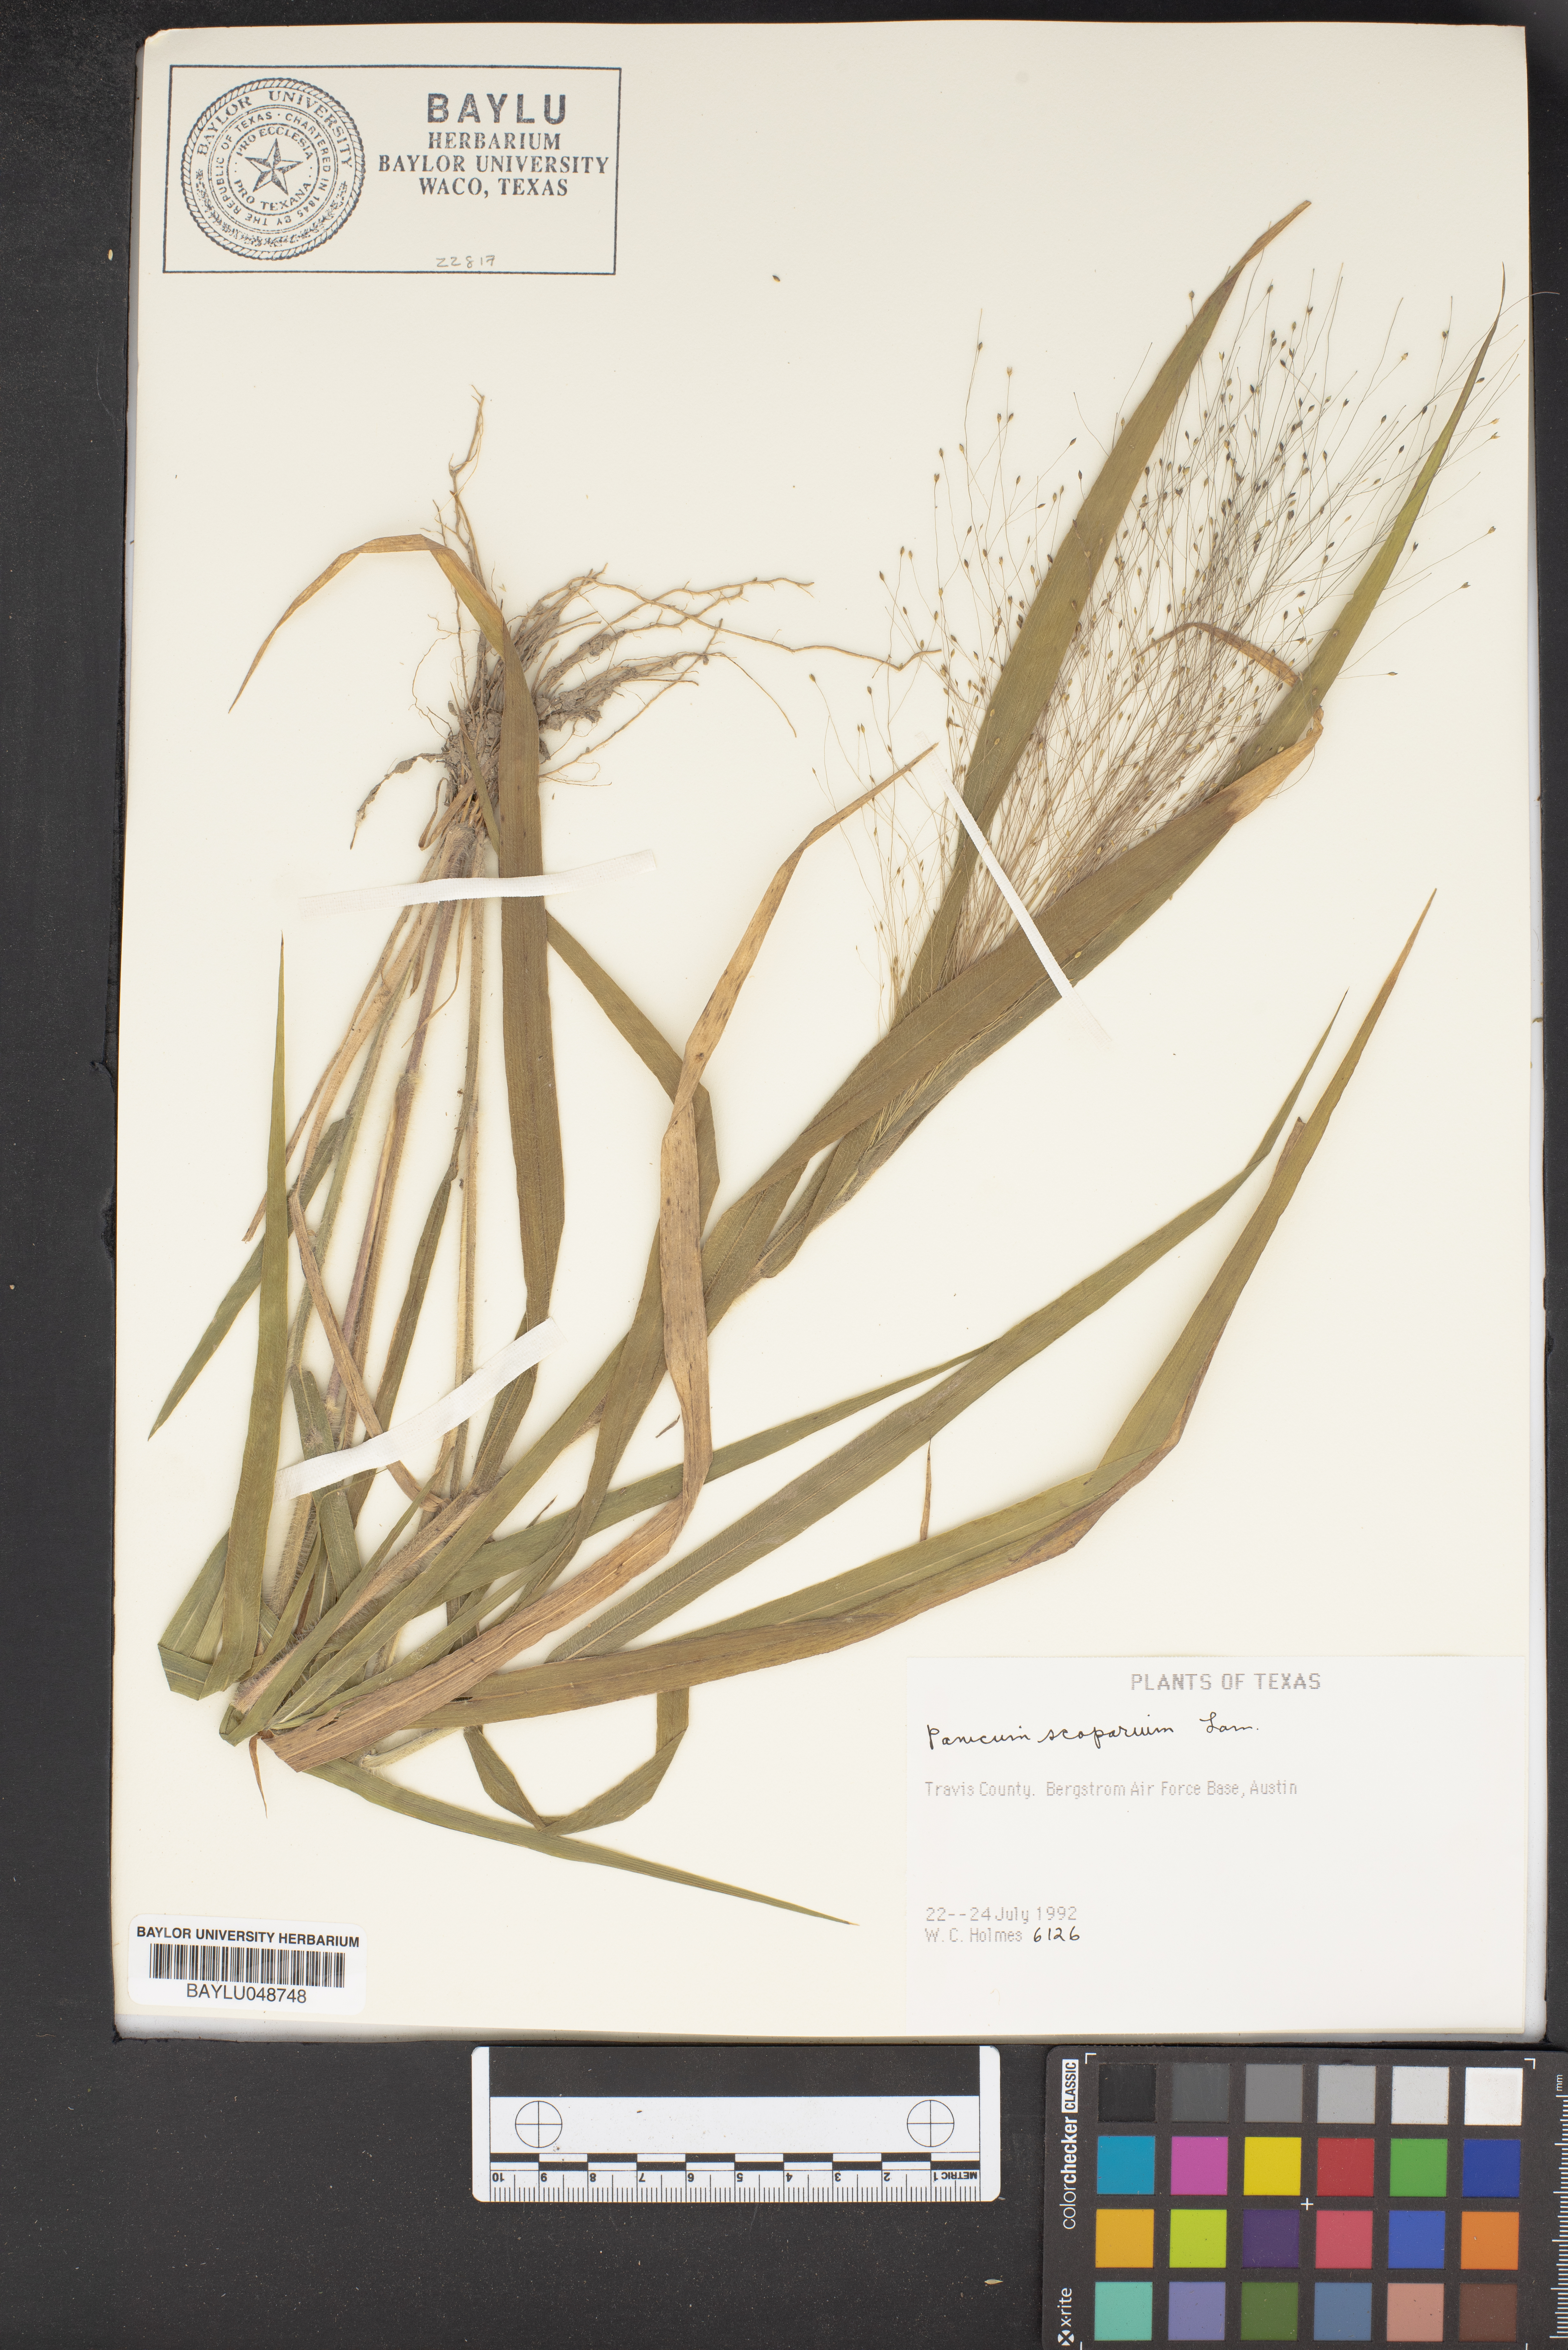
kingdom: Plantae
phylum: Tracheophyta
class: Liliopsida
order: Poales
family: Poaceae
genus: Dichanthelium
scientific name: Dichanthelium scribnerianum
